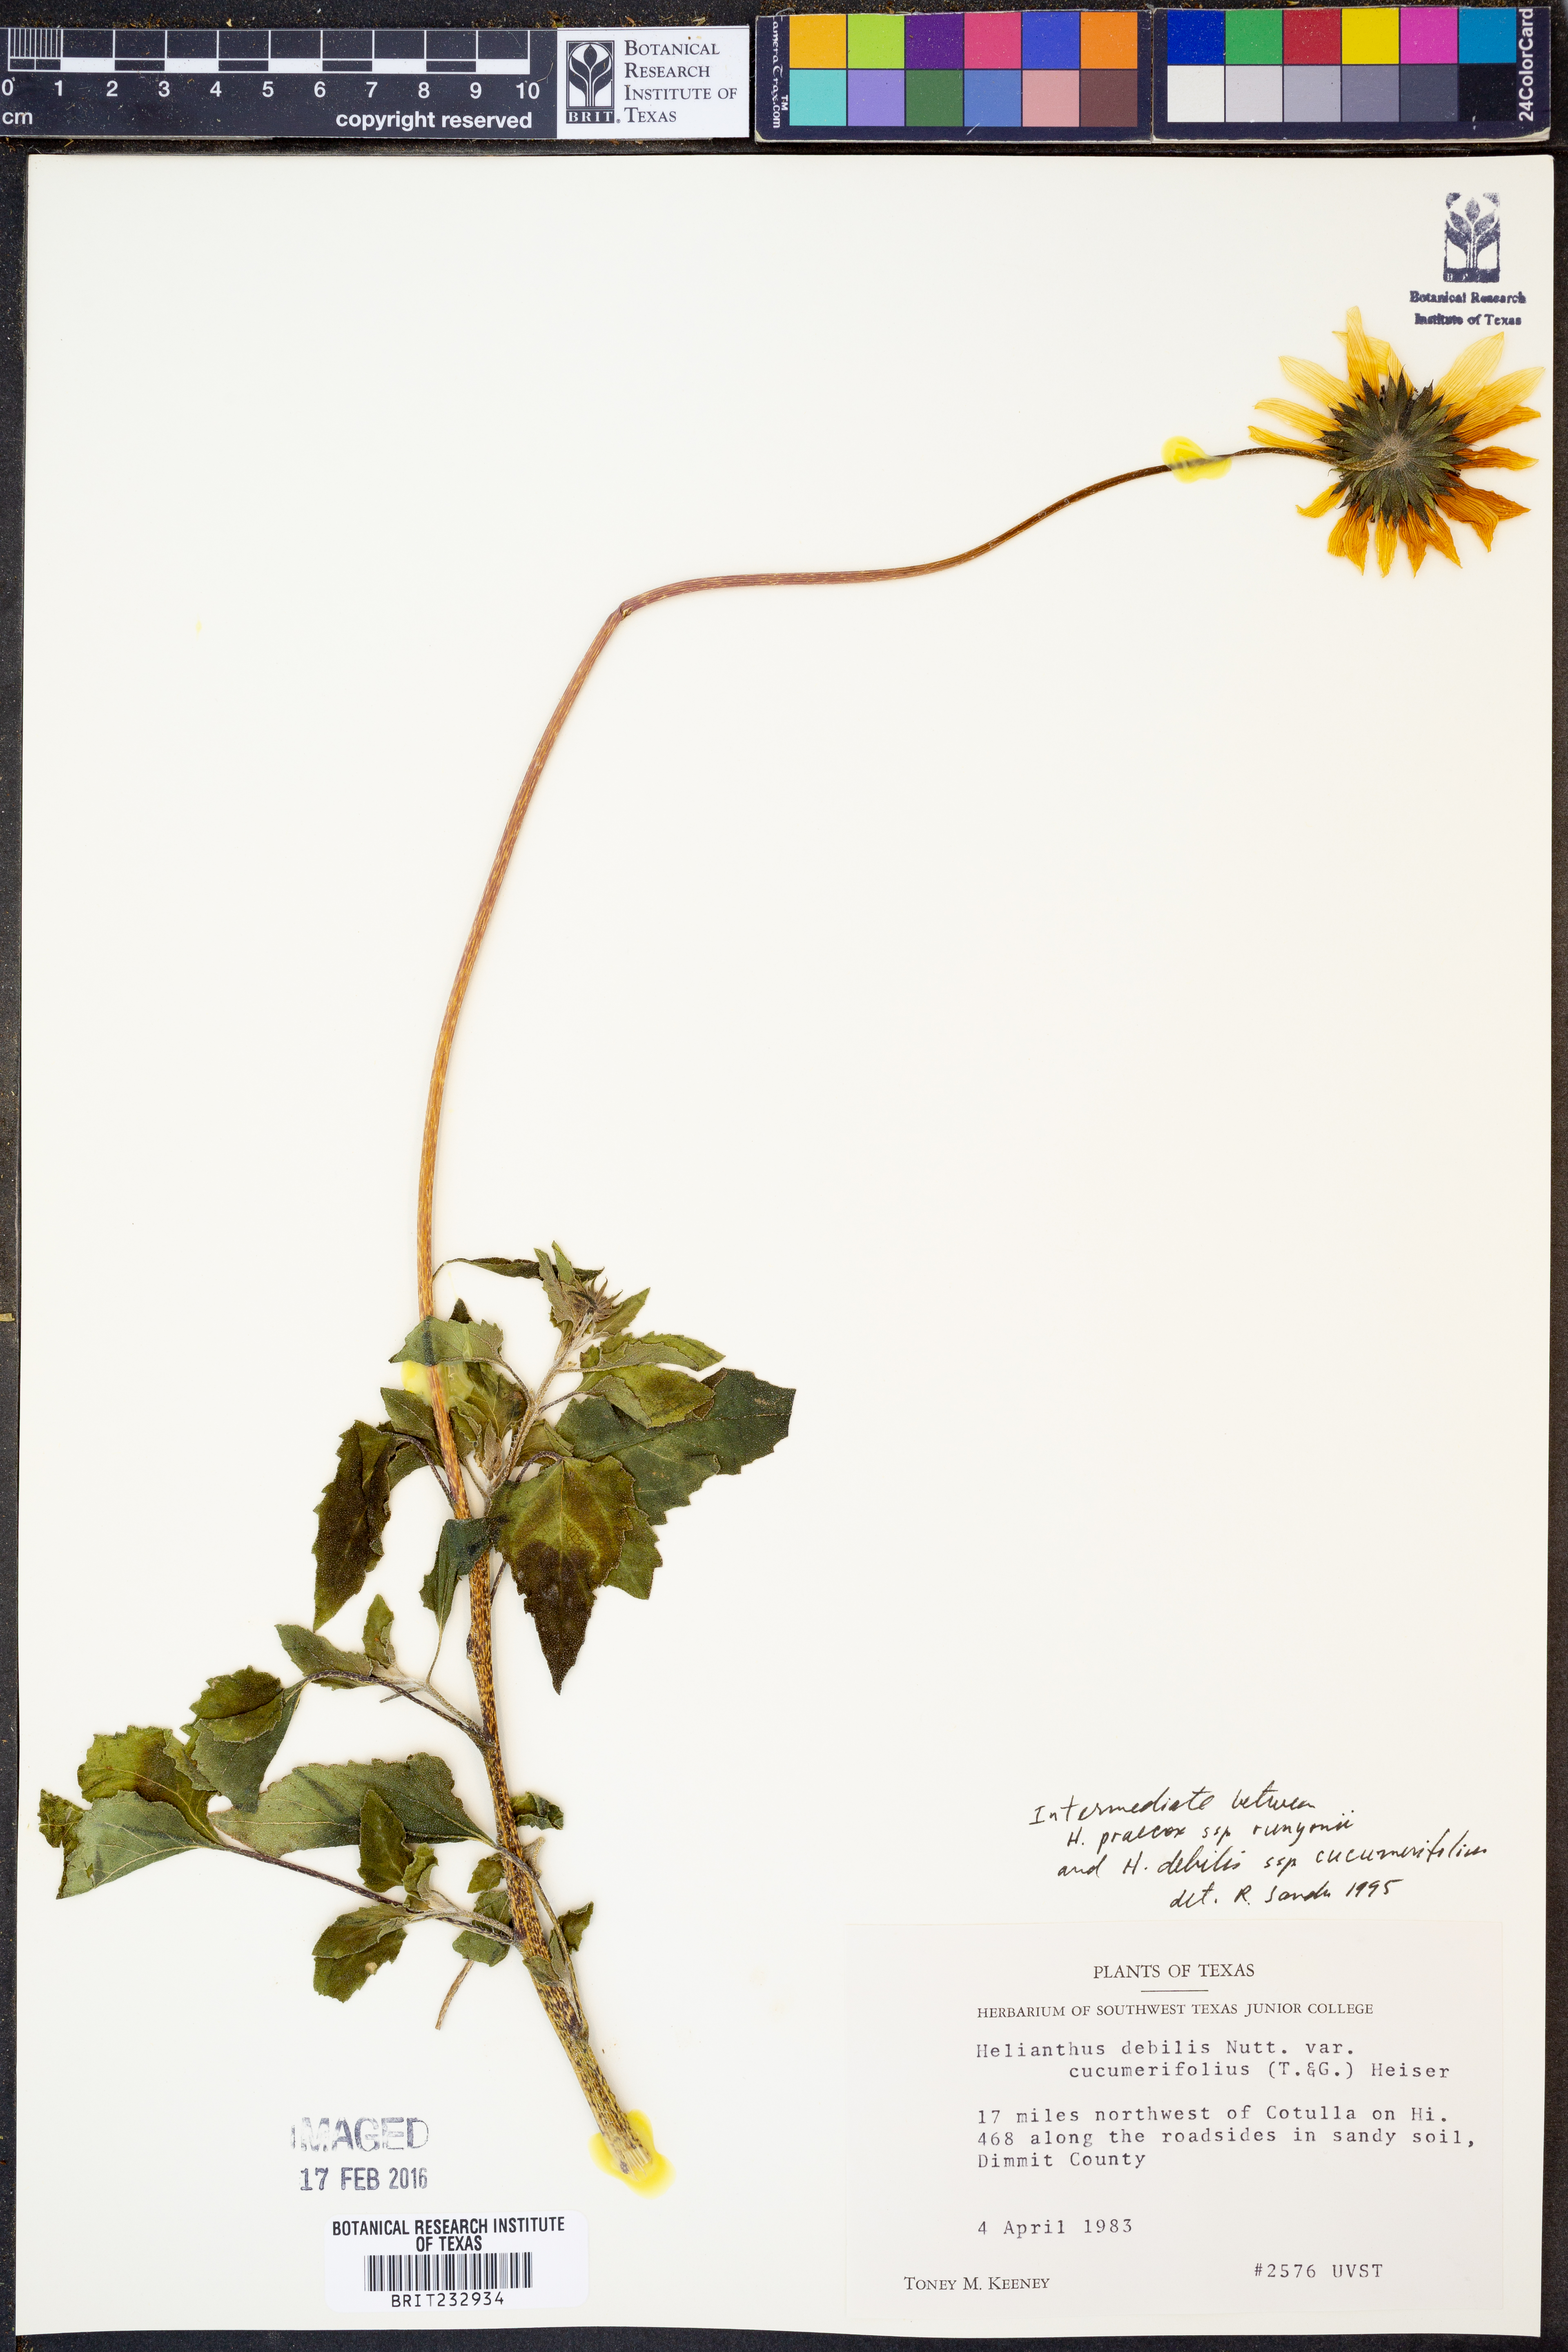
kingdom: Plantae
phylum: Tracheophyta
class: Magnoliopsida
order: Asterales
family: Asteraceae
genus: Helianthus
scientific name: Helianthus praecox
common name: Texas sunflower
